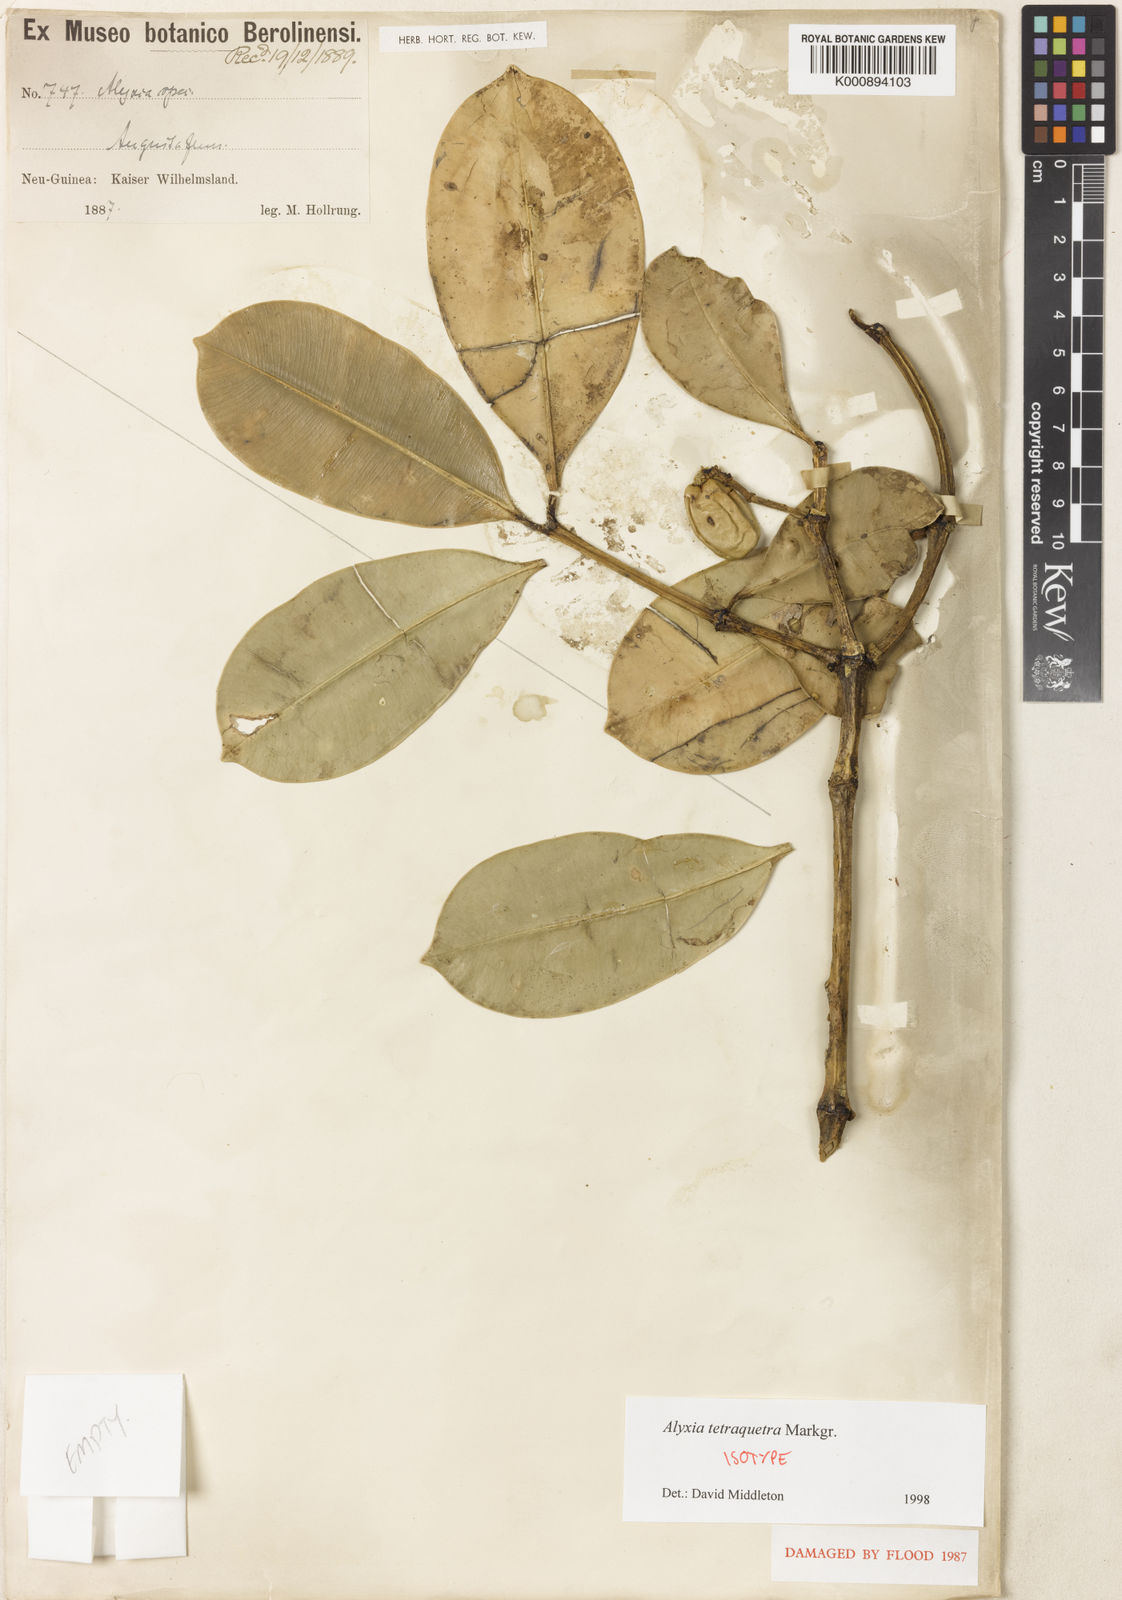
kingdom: Plantae
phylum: Tracheophyta
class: Magnoliopsida
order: Gentianales
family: Apocynaceae
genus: Alyxia
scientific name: Alyxia tetraquetra
